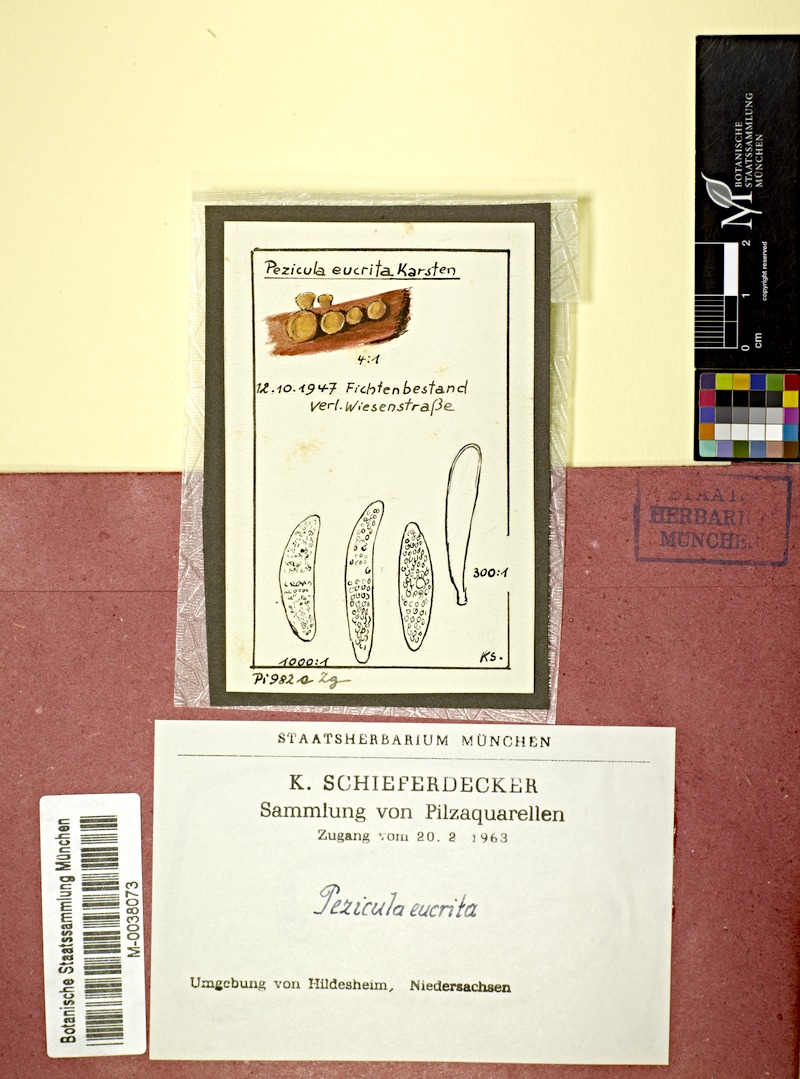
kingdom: Fungi
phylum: Ascomycota
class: Leotiomycetes
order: Helotiales
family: Dermateaceae
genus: Pezicula
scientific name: Pezicula eucrita
